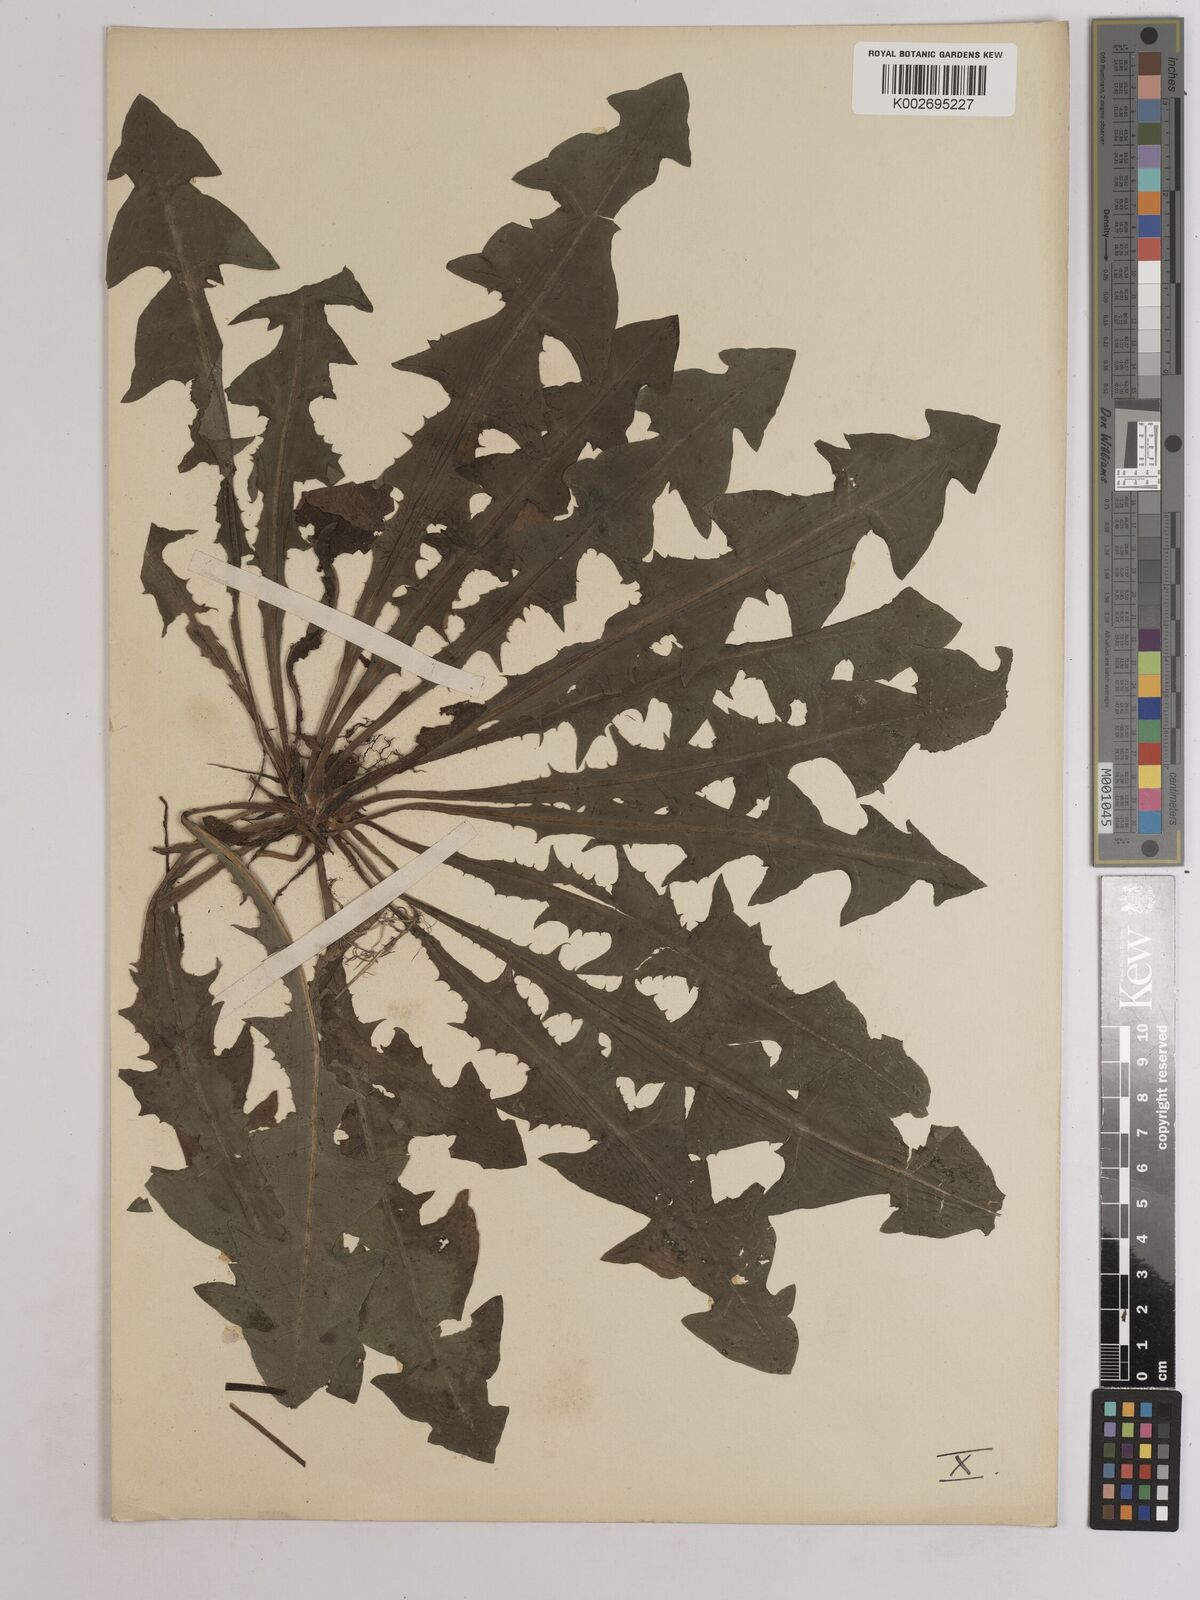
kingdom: Plantae
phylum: Tracheophyta
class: Magnoliopsida
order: Asterales
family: Asteraceae
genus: Taraxacum
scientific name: Taraxacum officinale
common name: Common dandelion
